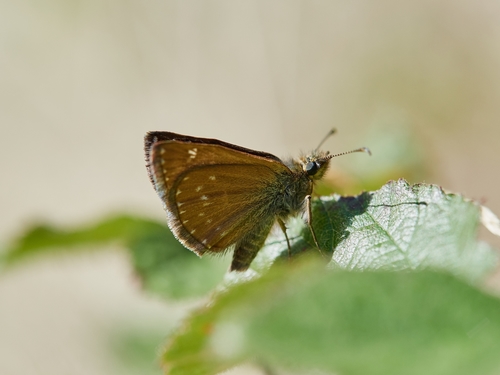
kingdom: Animalia
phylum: Arthropoda
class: Insecta
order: Lepidoptera
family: Hesperiidae
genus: Erynnis
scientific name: Erynnis tages
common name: Dingy skipper
